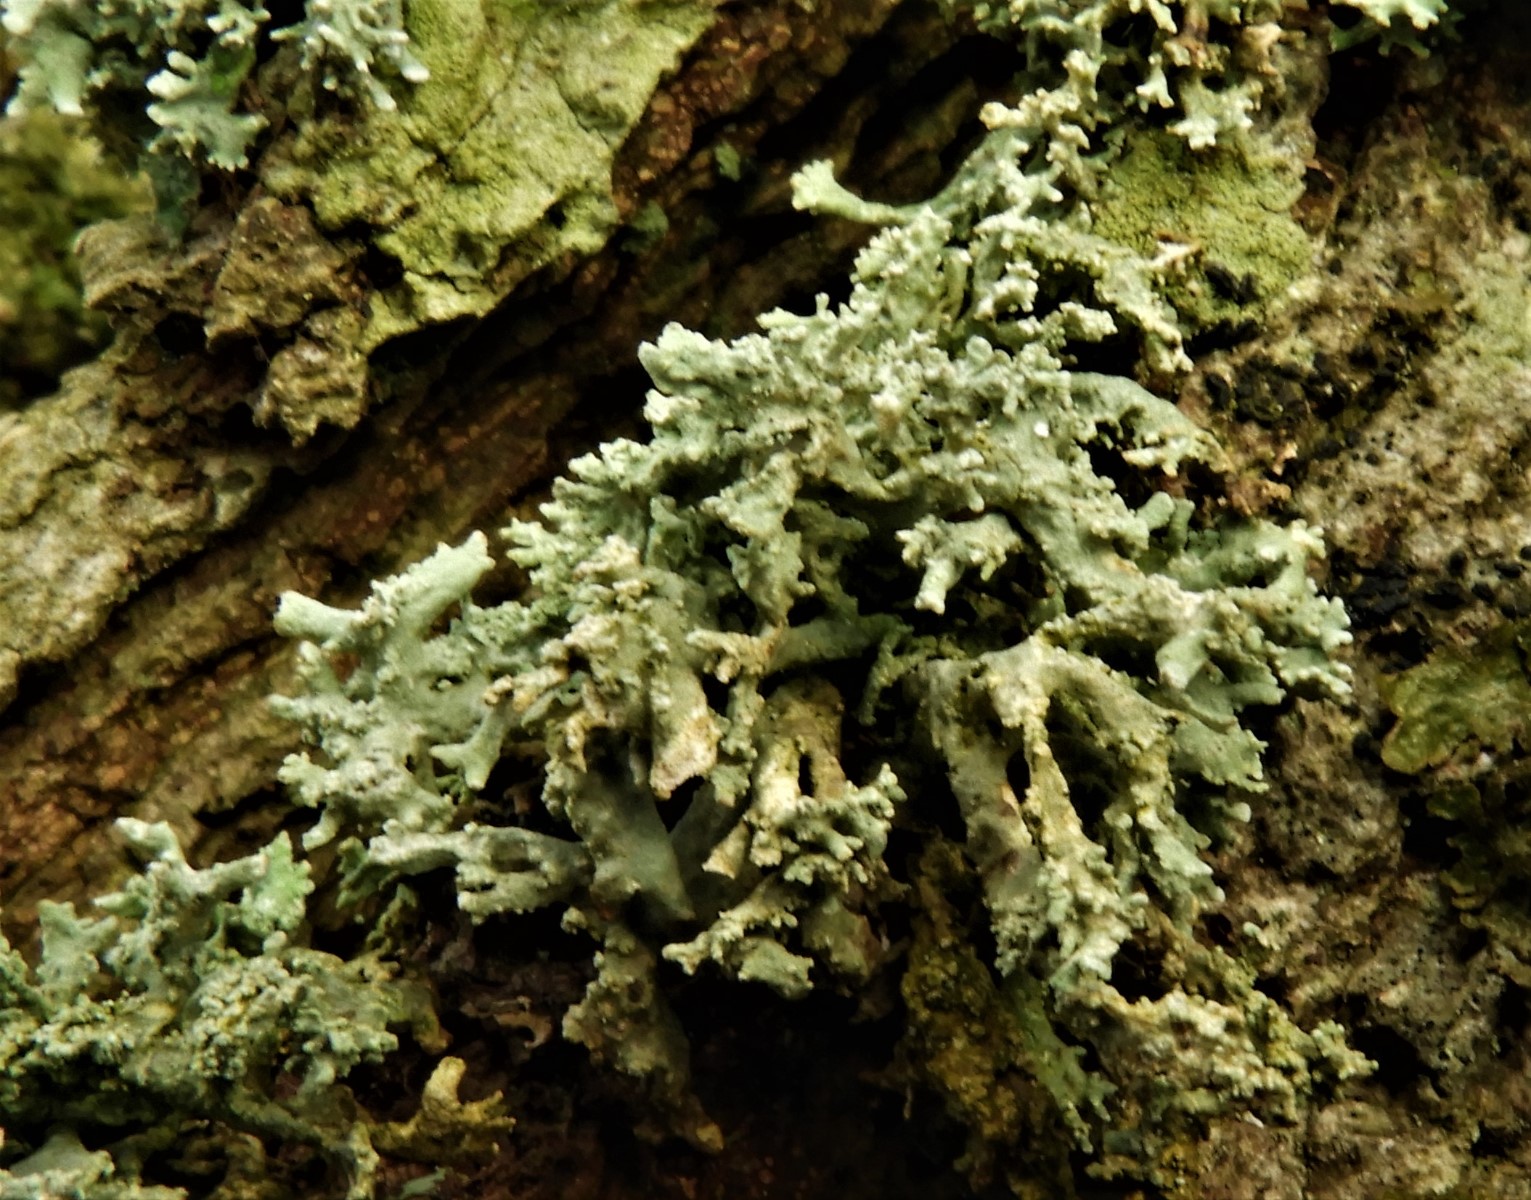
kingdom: Fungi
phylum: Ascomycota
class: Lecanoromycetes
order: Lecanorales
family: Parmeliaceae
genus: Evernia
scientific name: Evernia prunastri
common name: almindelig slåenlav
